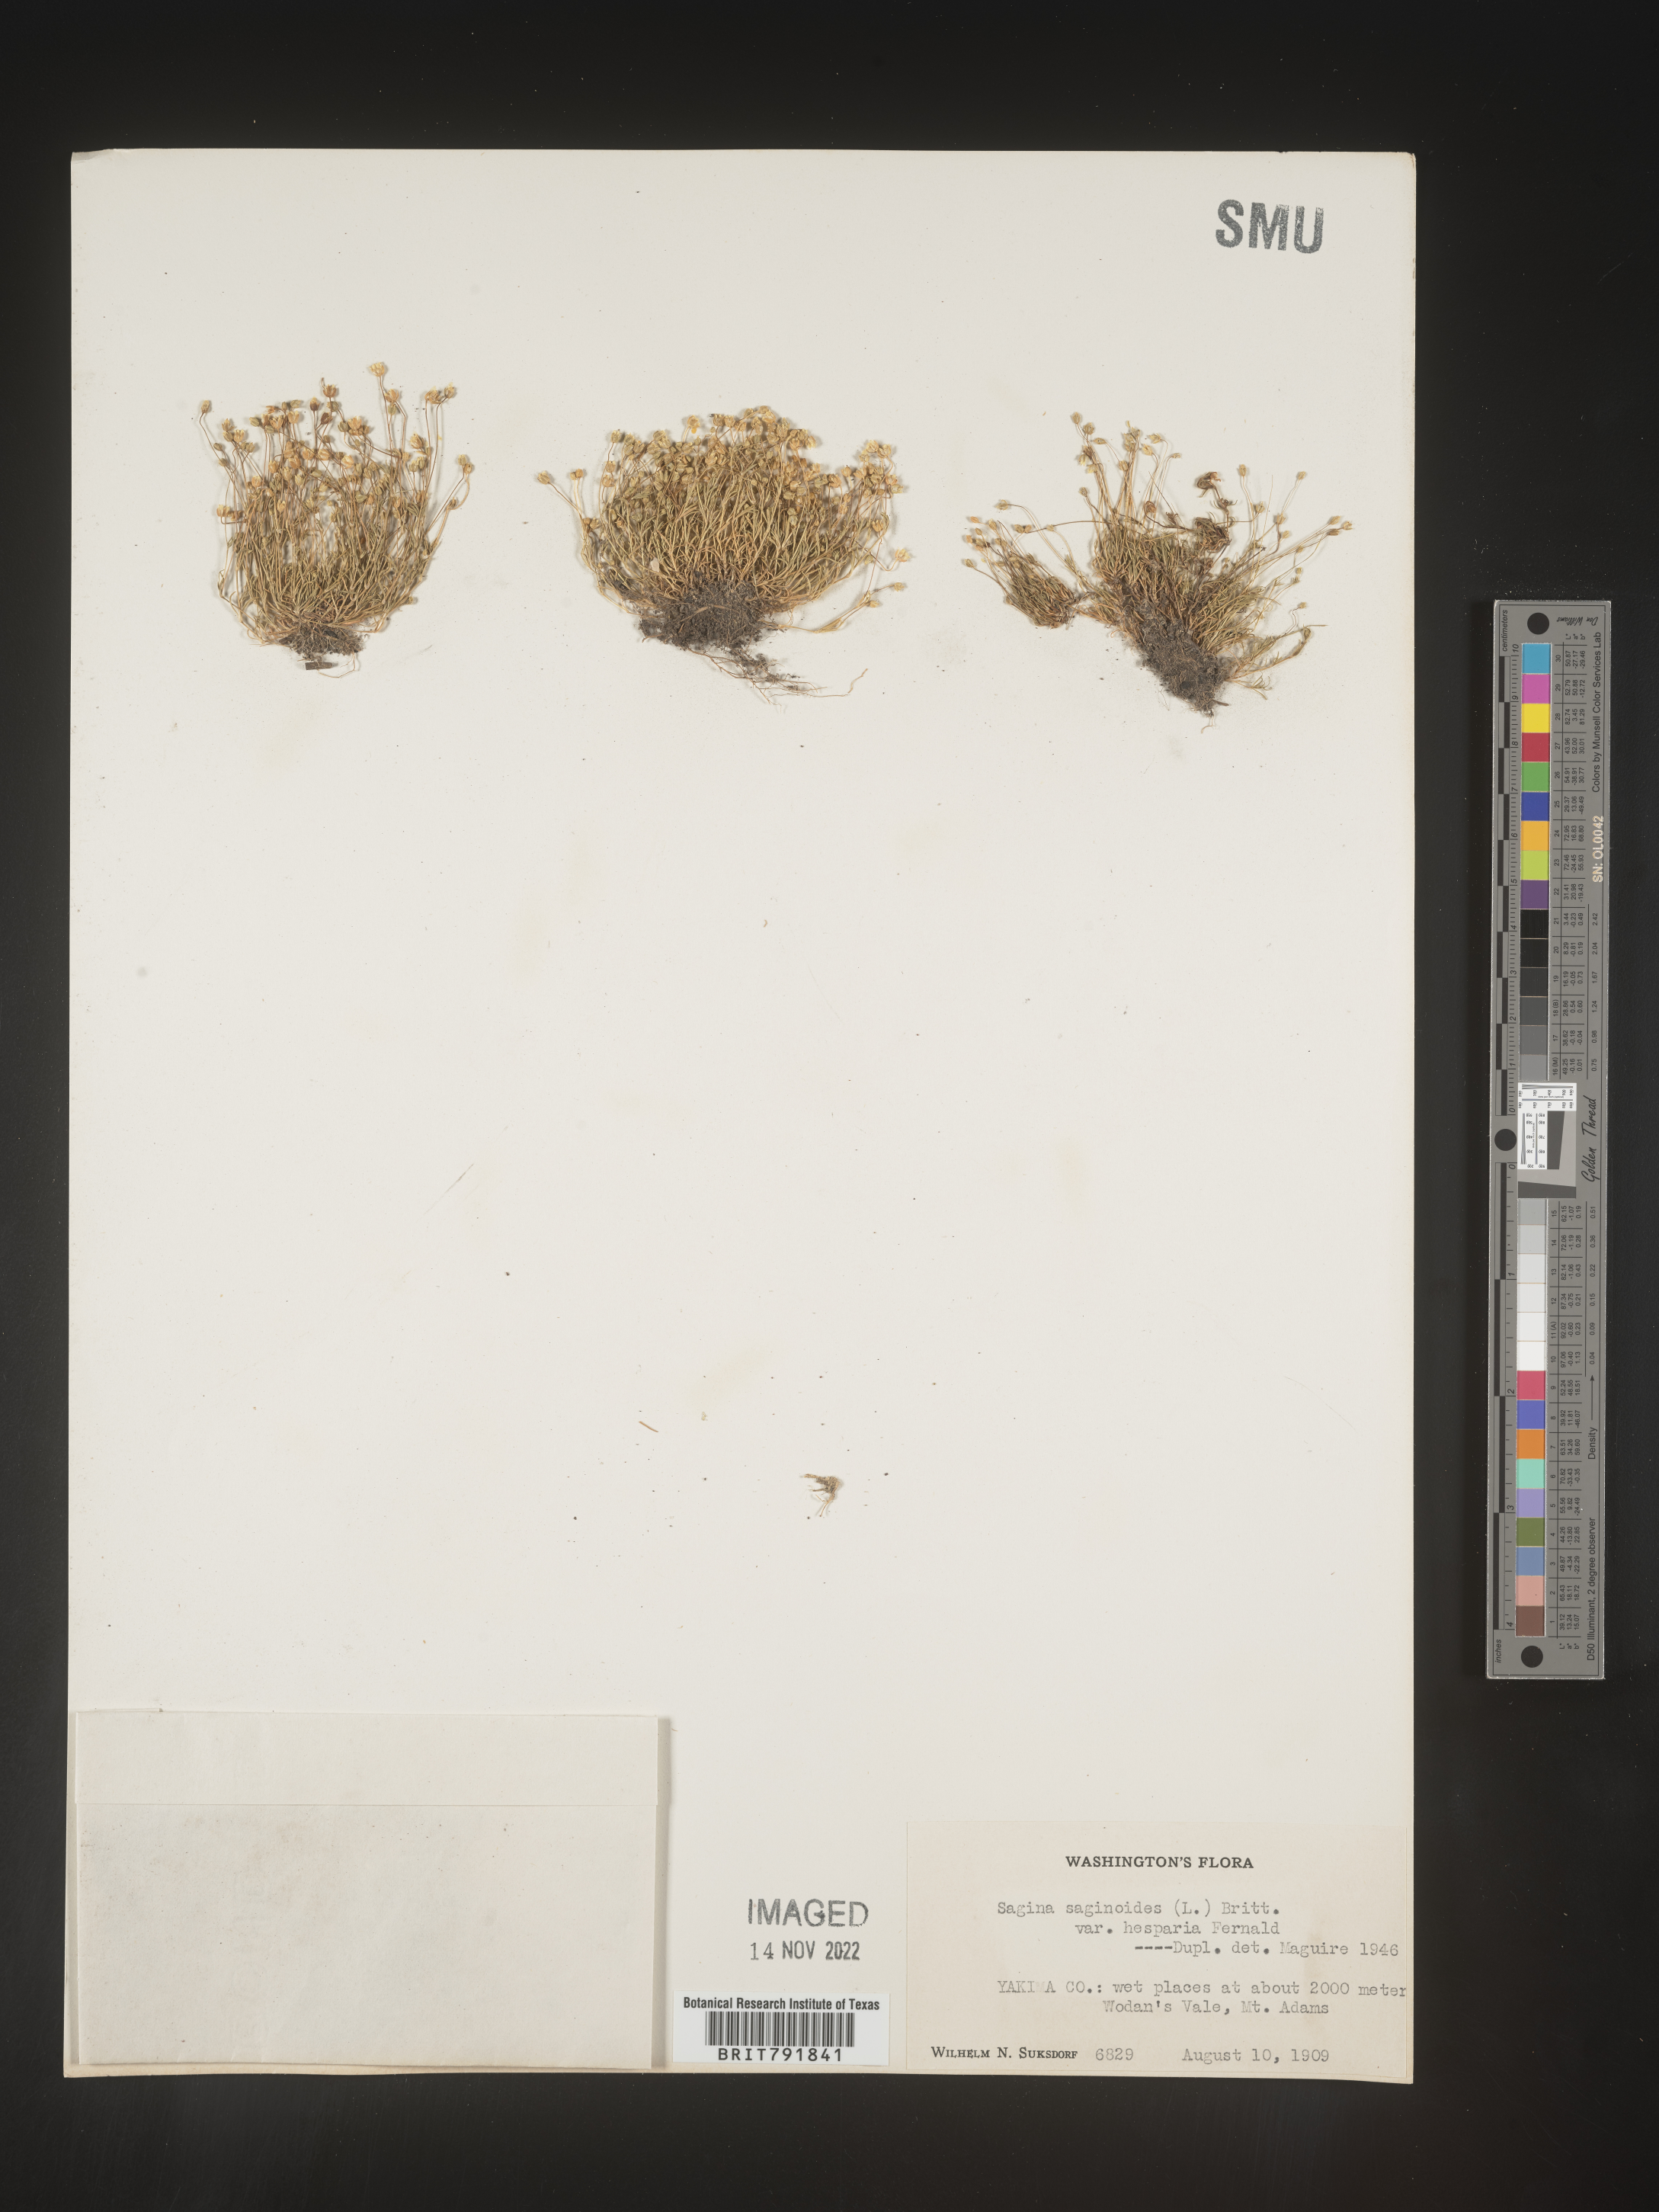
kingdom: Plantae
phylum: Tracheophyta
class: Magnoliopsida
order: Caryophyllales
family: Caryophyllaceae
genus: Sagina
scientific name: Sagina
